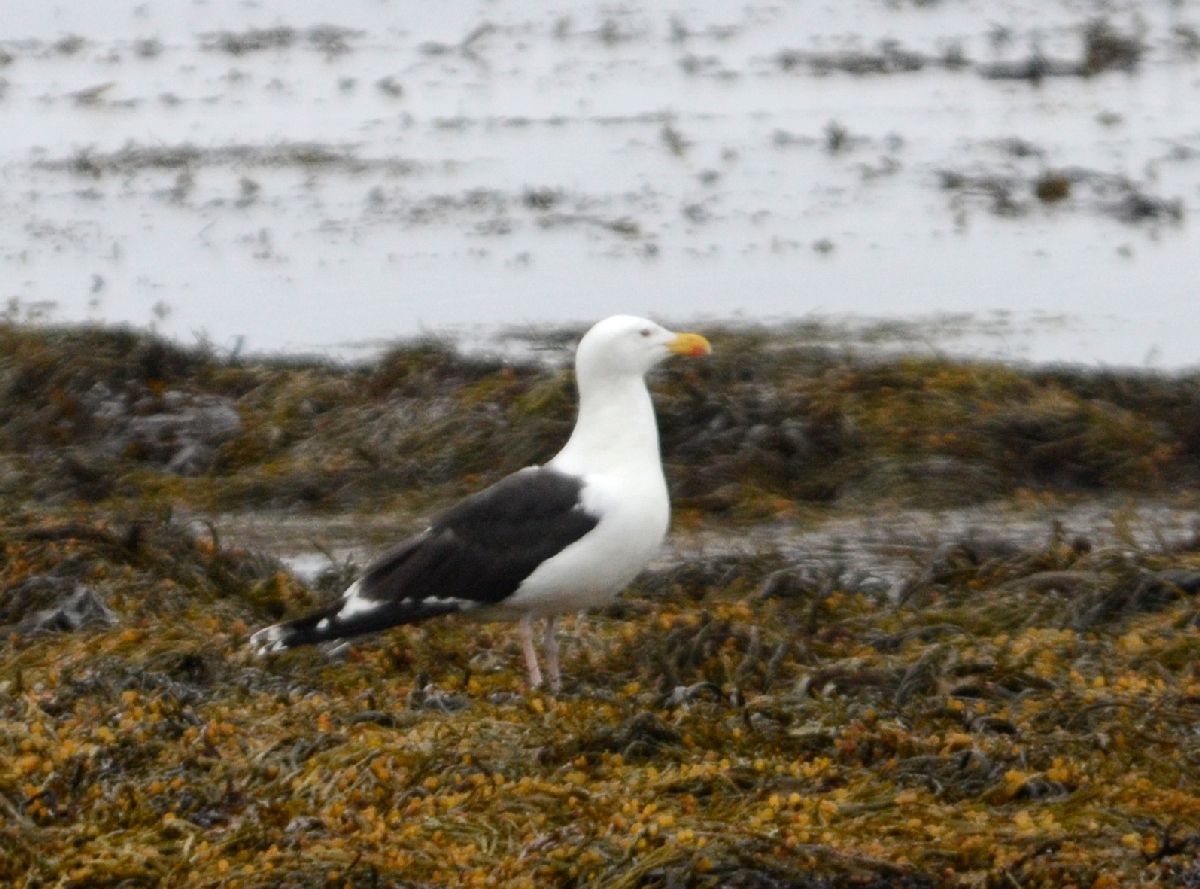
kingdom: Animalia
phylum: Chordata
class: Aves
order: Charadriiformes
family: Laridae
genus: Larus
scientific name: Larus marinus
